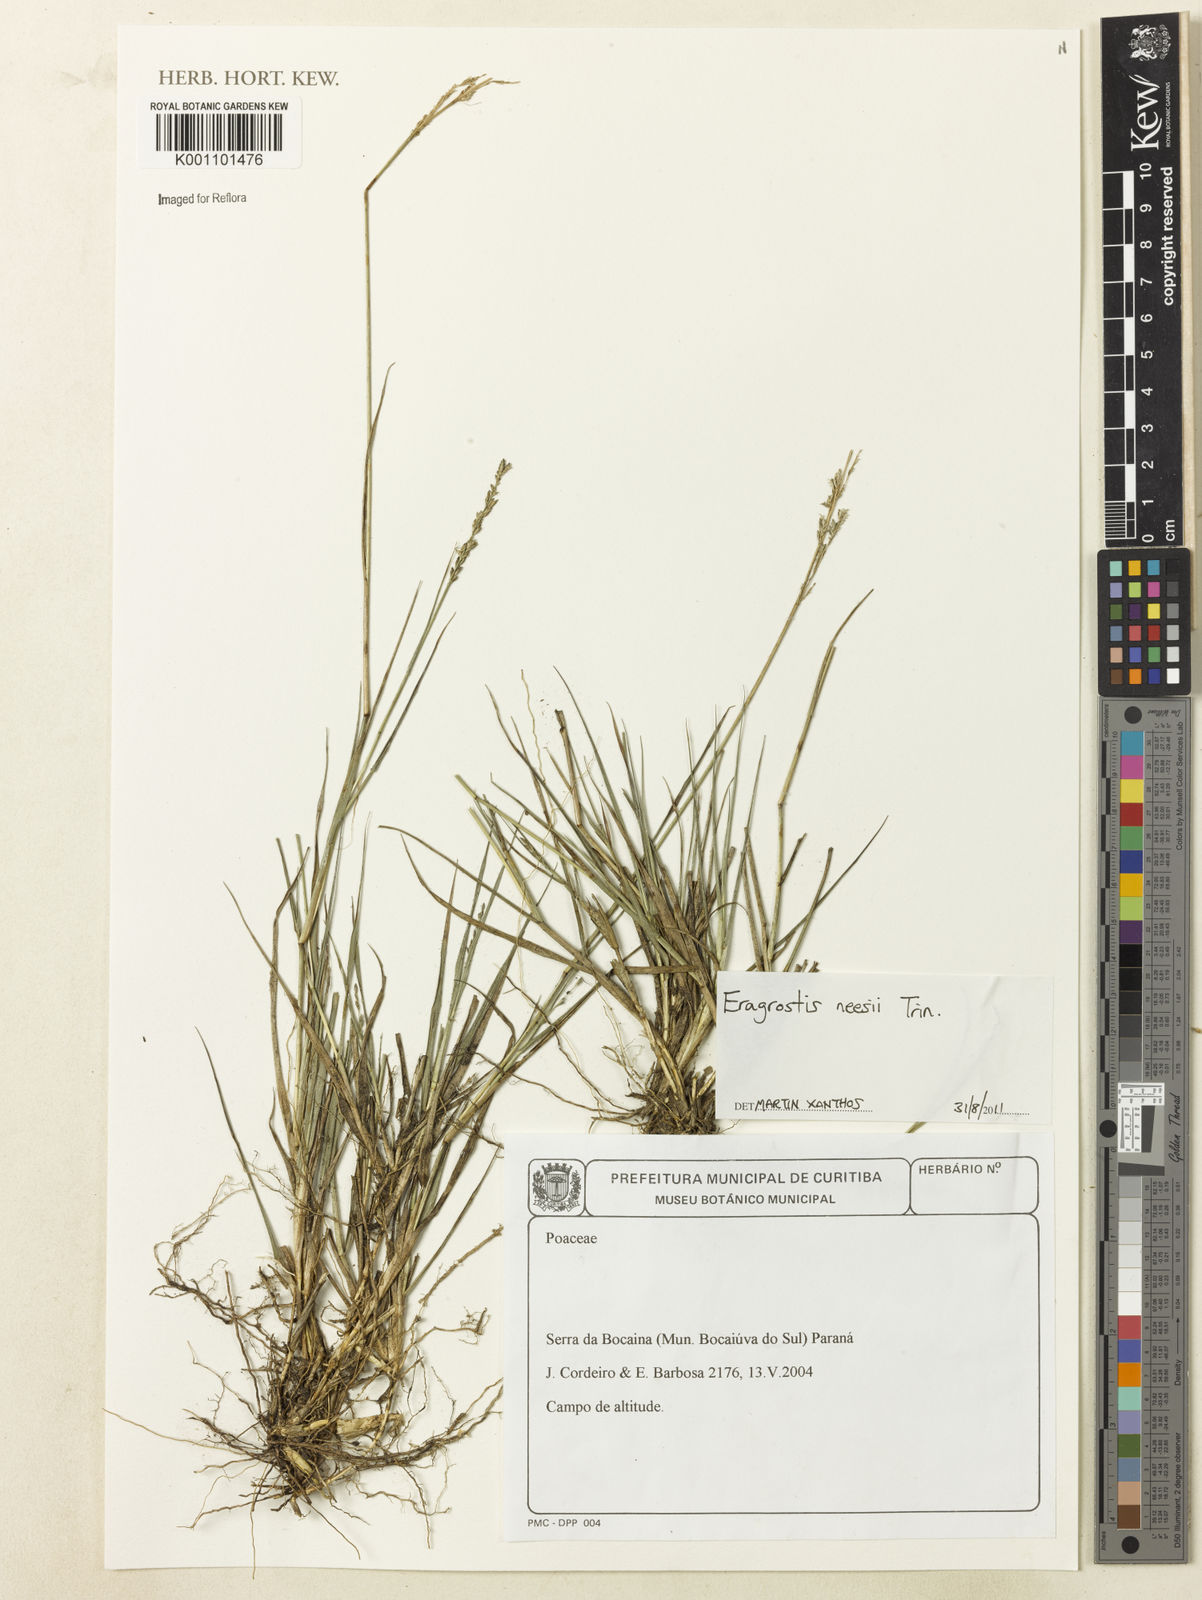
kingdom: Plantae
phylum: Tracheophyta
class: Liliopsida
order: Poales
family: Poaceae
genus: Eragrostis
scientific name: Eragrostis neesii
